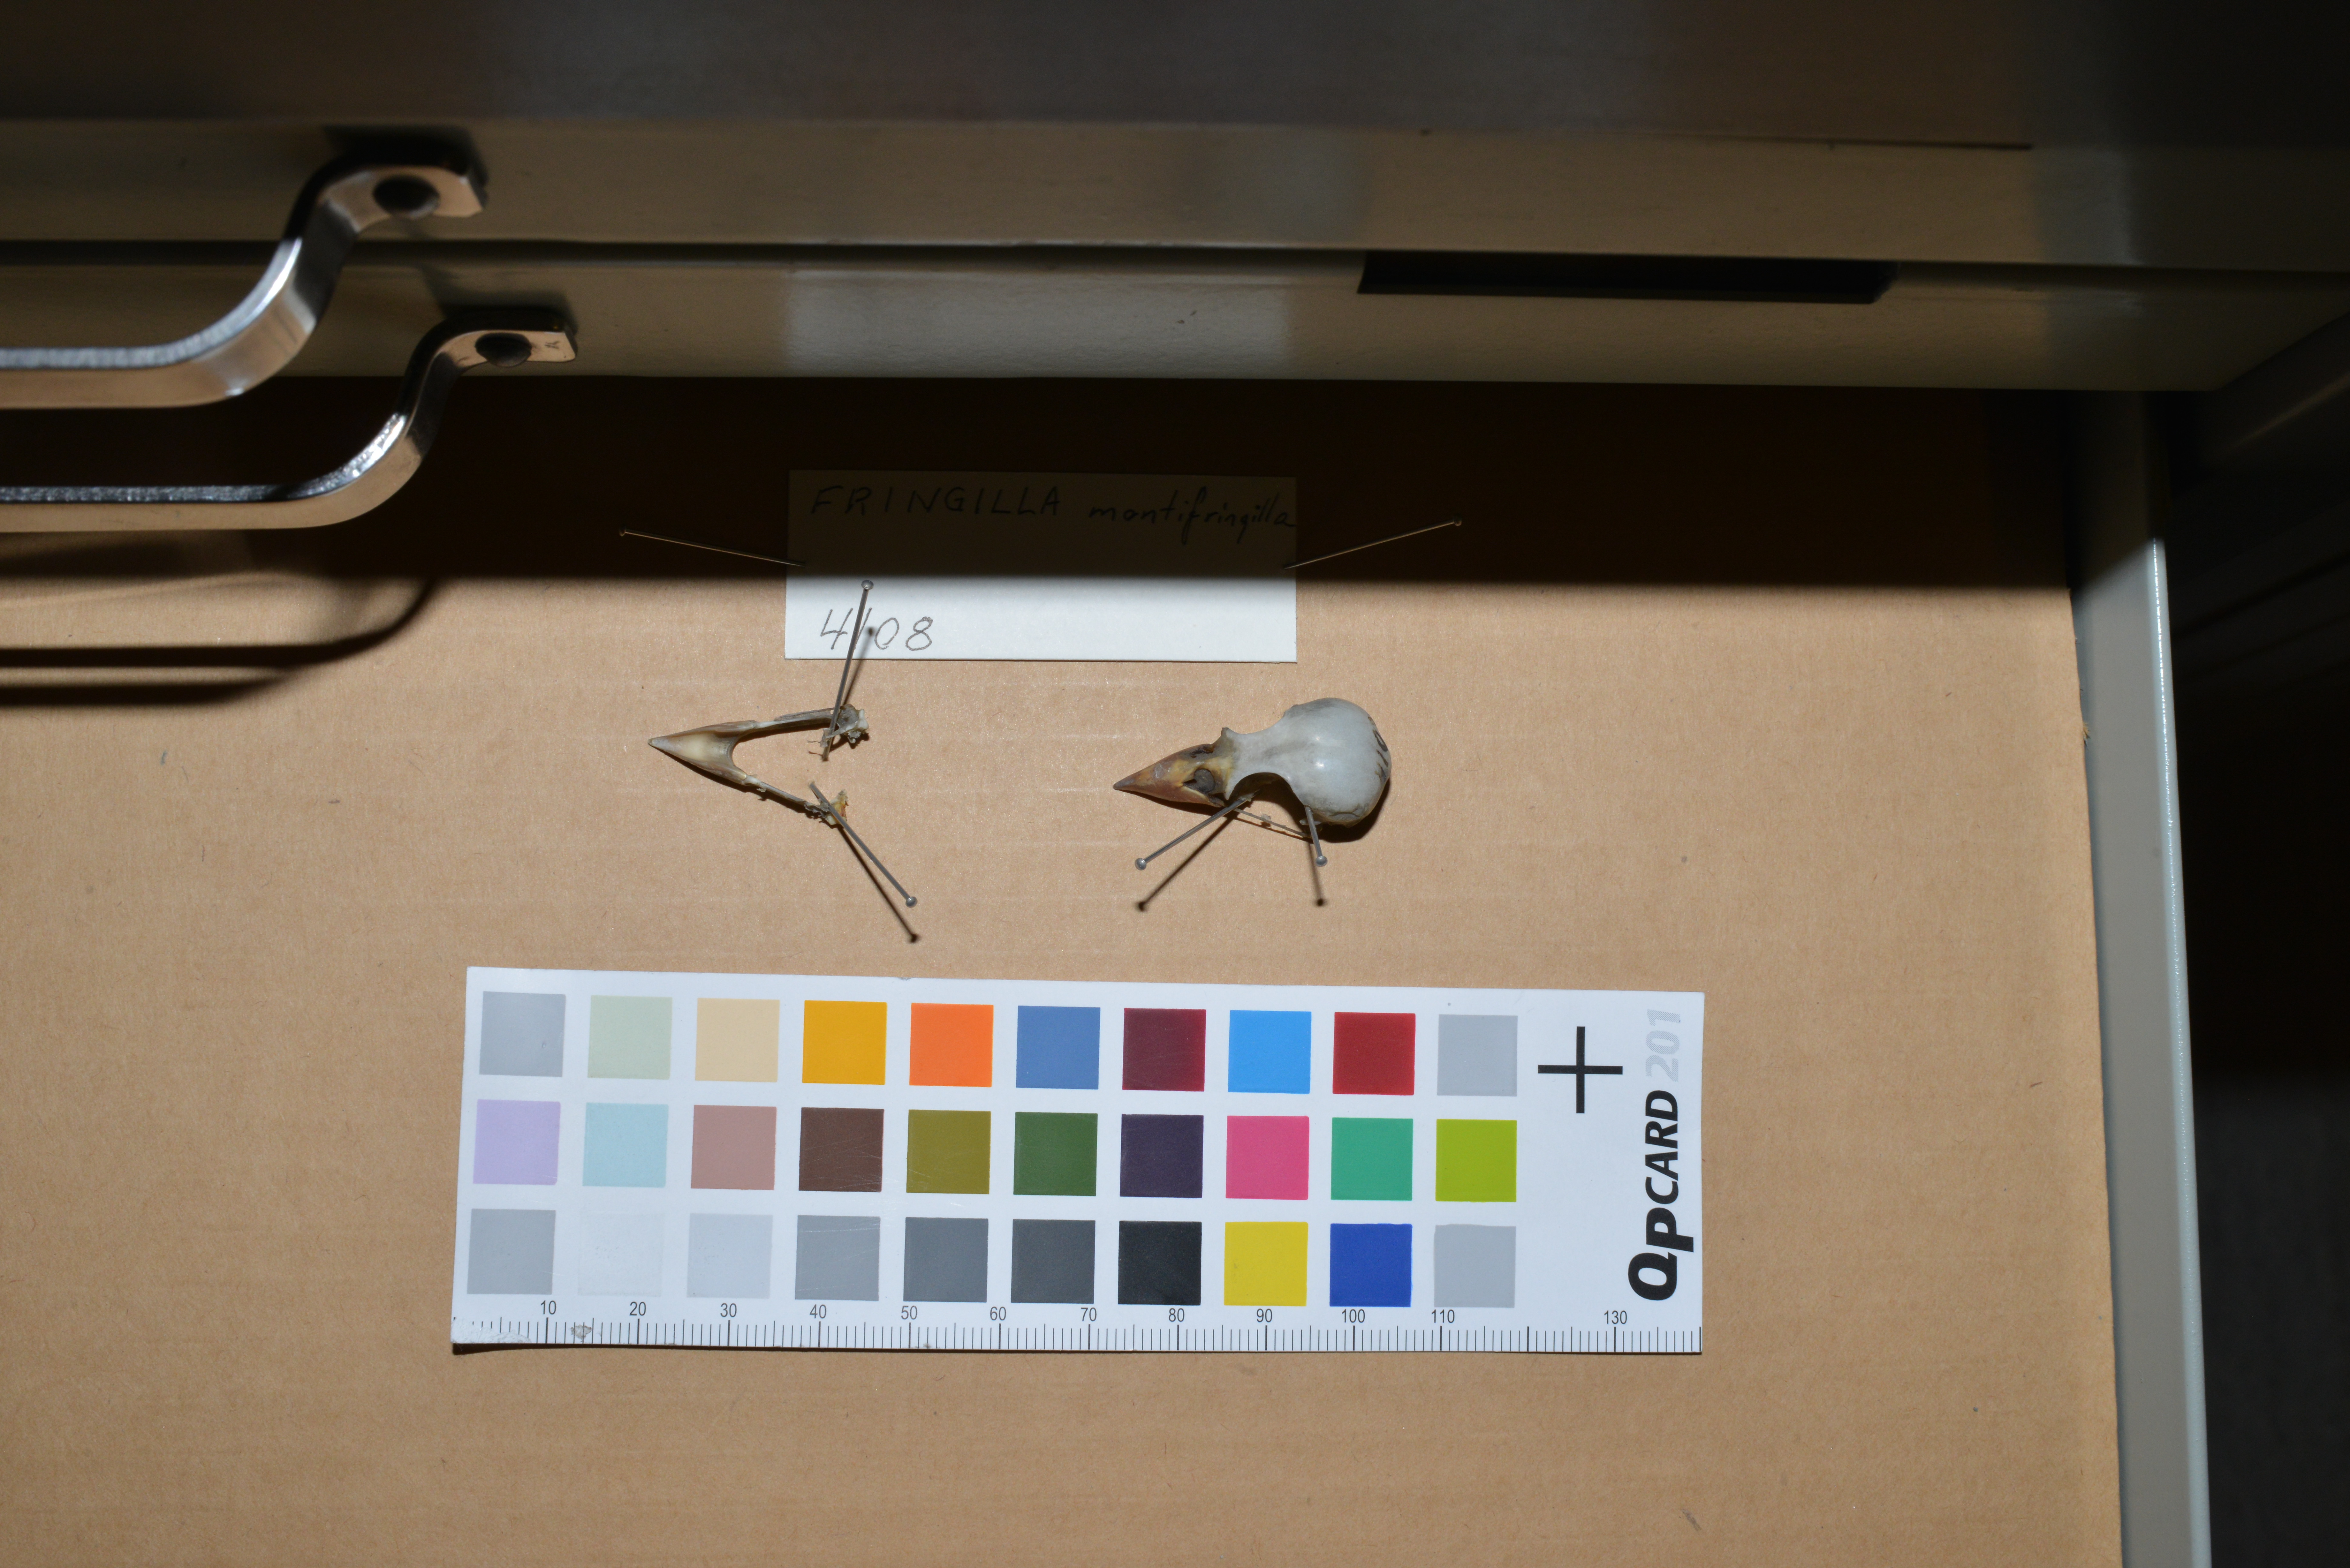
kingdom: Animalia
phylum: Chordata
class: Aves
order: Passeriformes
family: Fringillidae
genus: Fringilla
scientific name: Fringilla montifringilla
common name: Brambling
